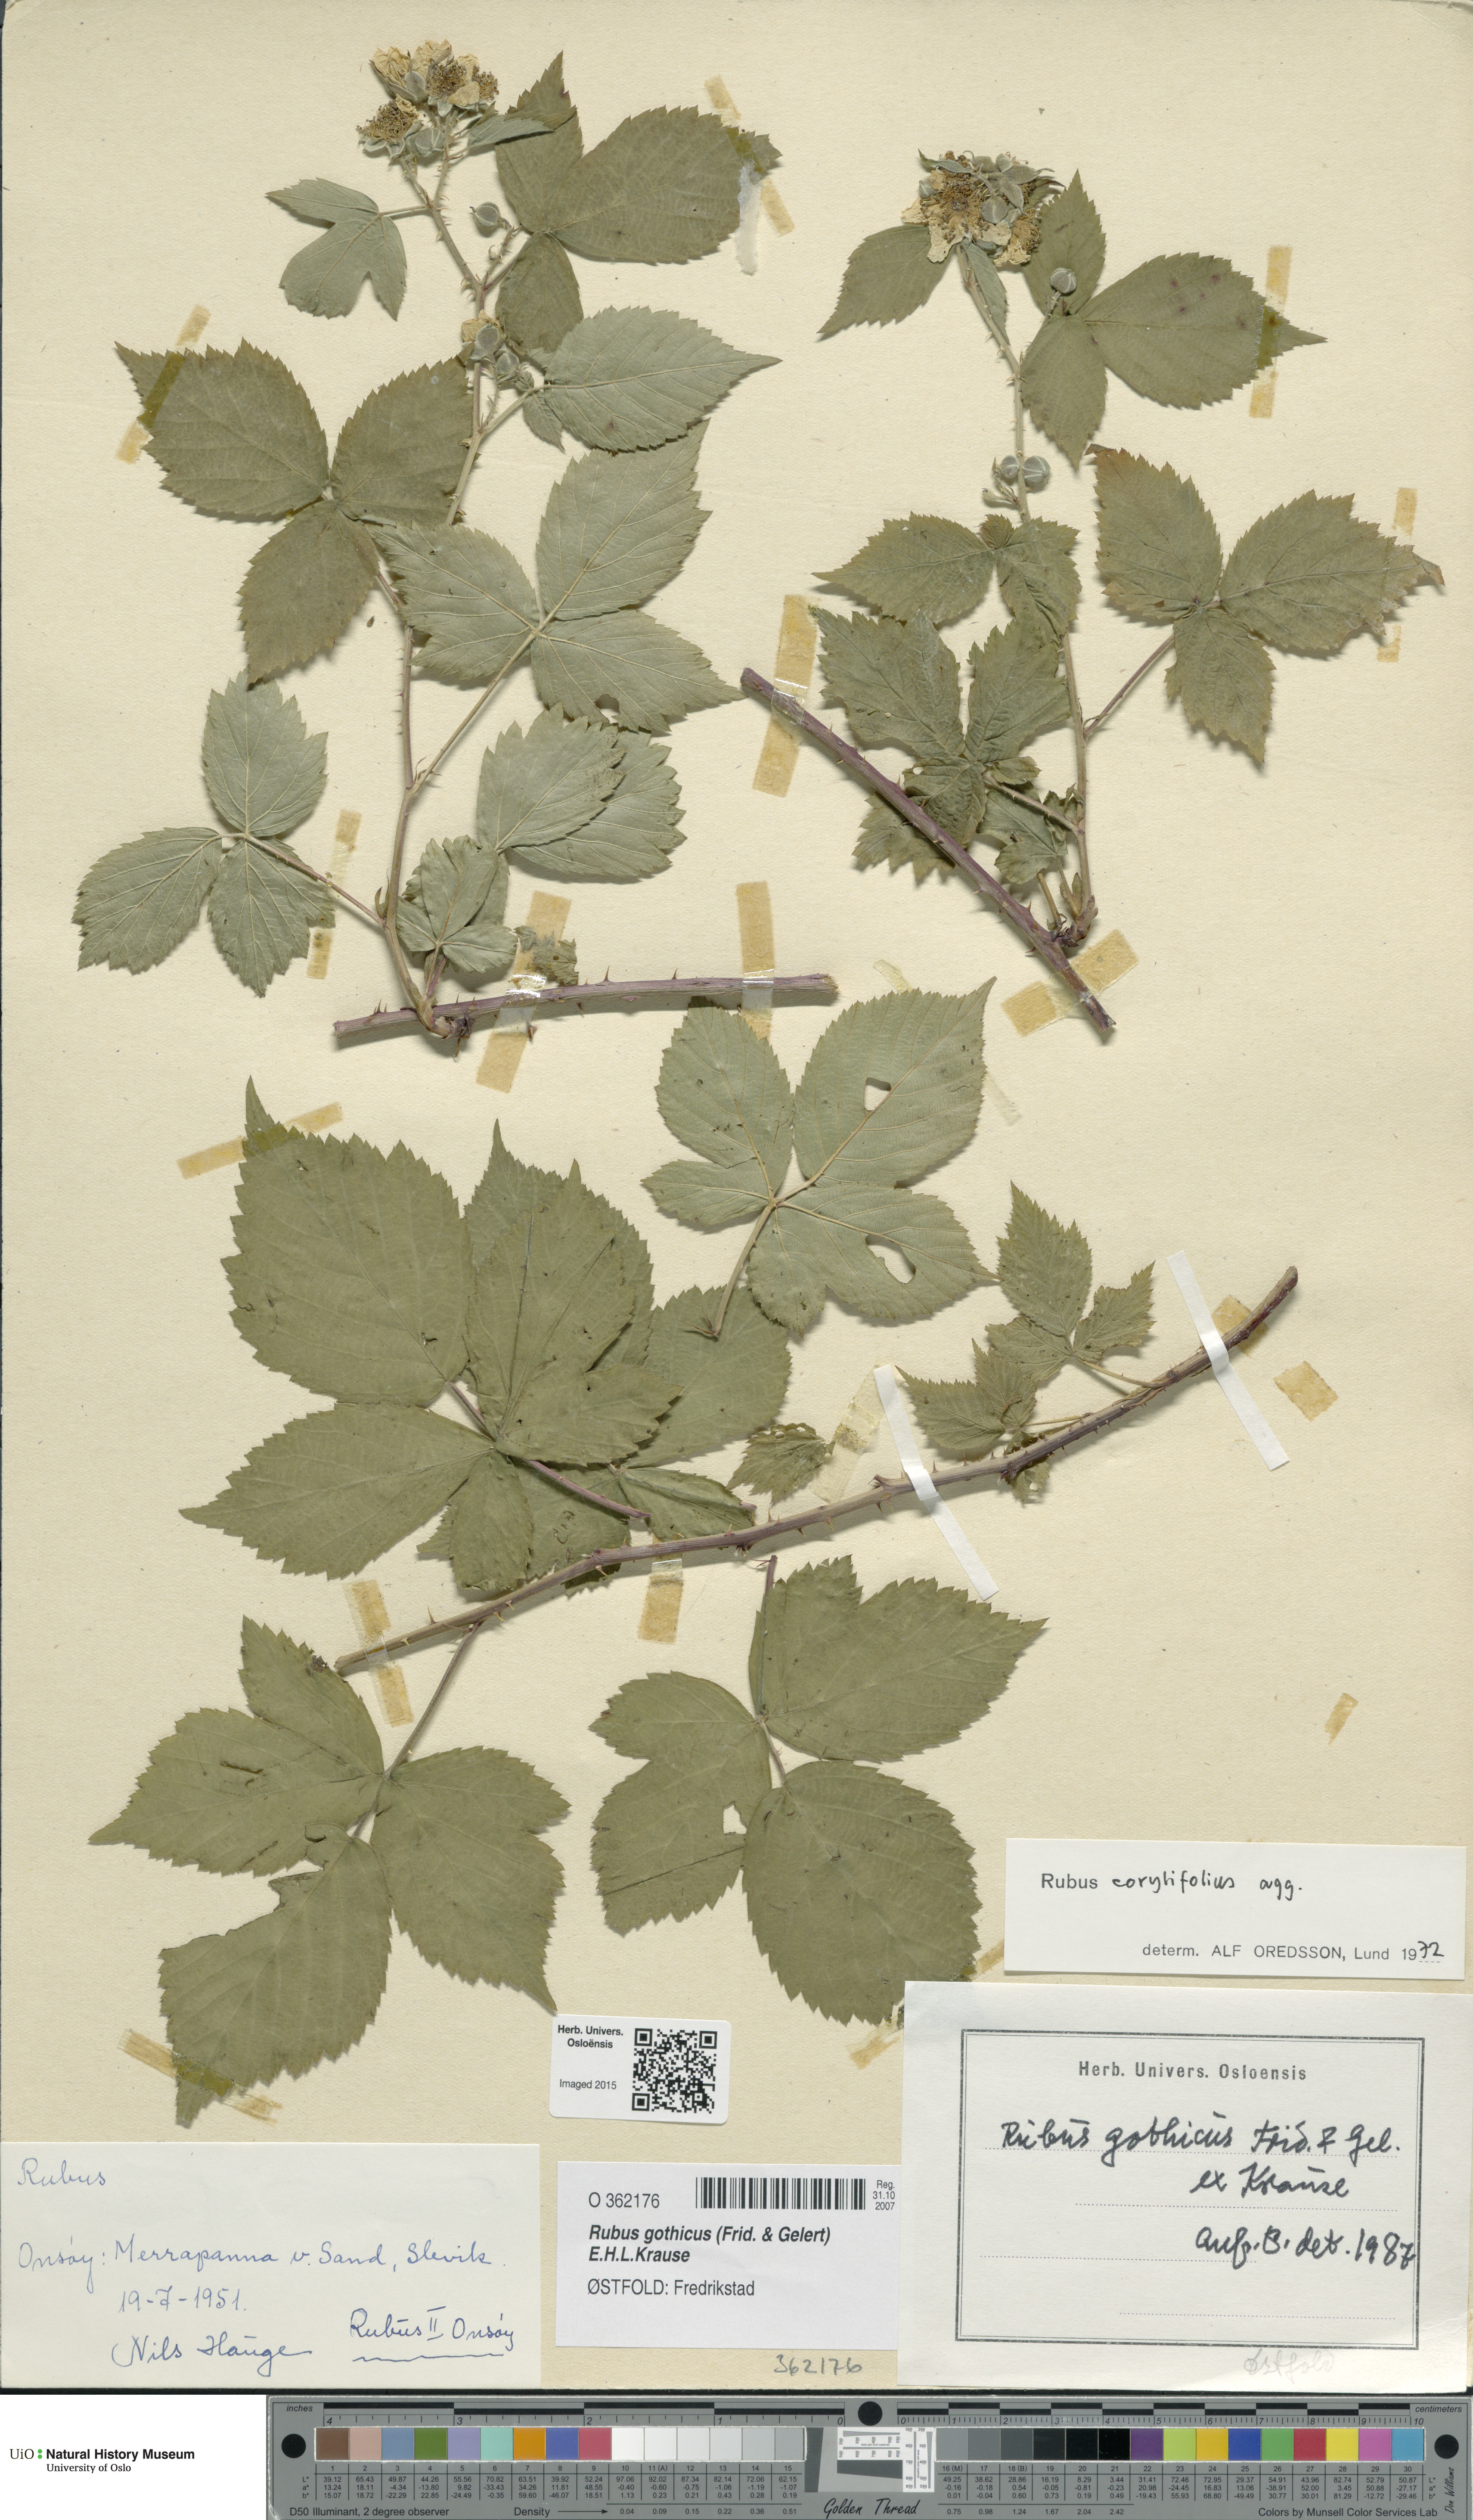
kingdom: Plantae
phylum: Tracheophyta
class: Magnoliopsida
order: Rosales
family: Rosaceae
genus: Rubus
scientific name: Rubus gothicus
